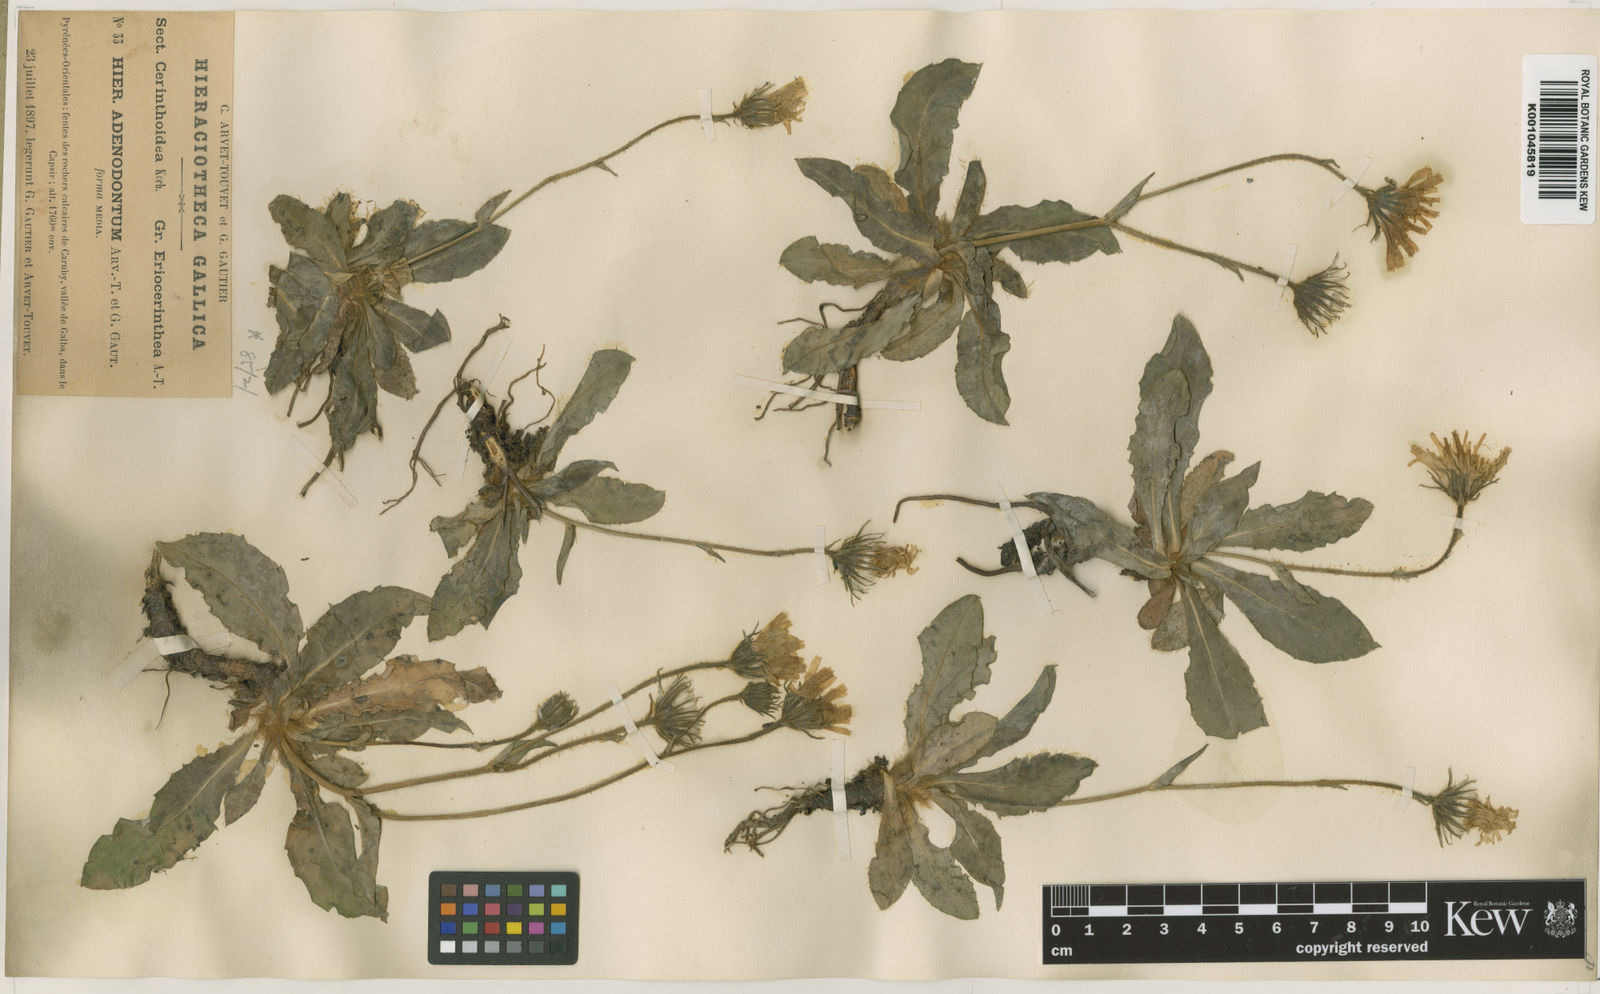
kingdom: Plantae
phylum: Tracheophyta
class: Magnoliopsida
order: Asterales
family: Asteraceae
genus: Hieracium
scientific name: Hieracium benascanum
